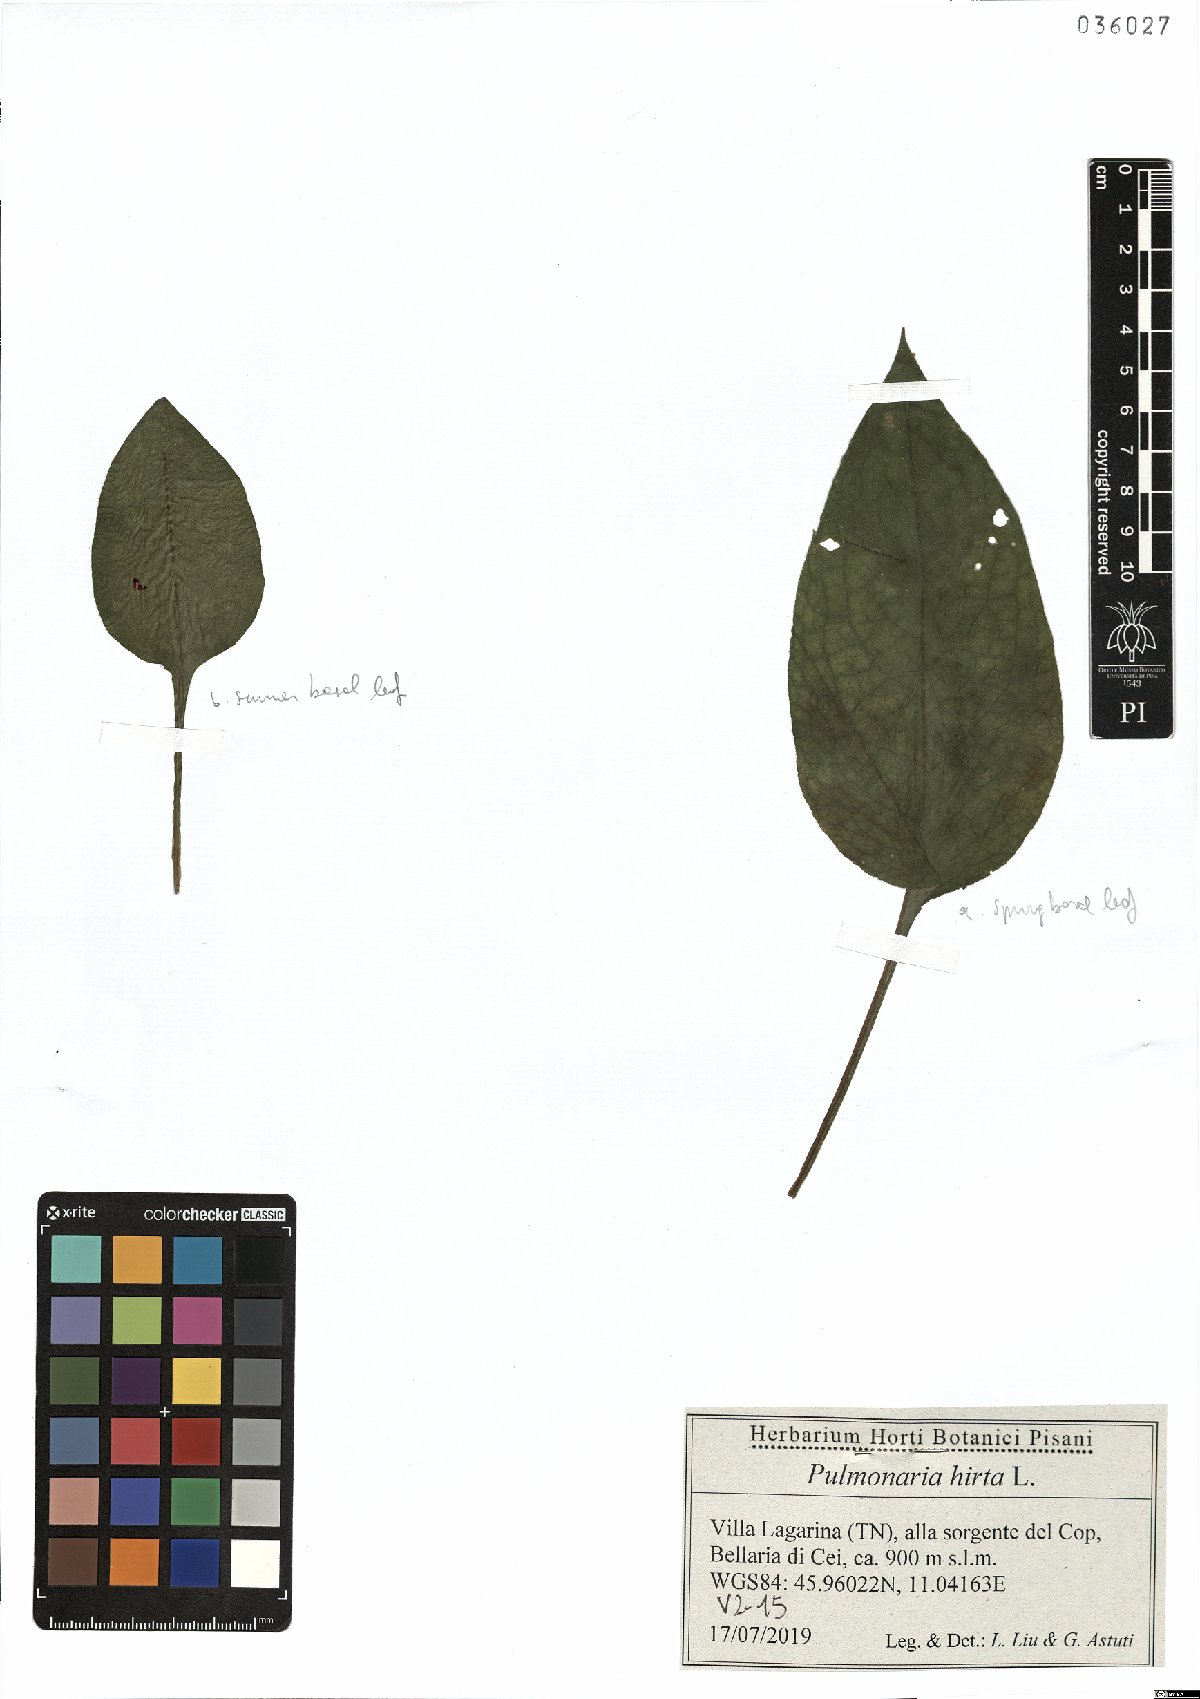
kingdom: Plantae
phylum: Tracheophyta
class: Magnoliopsida
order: Boraginales
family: Boraginaceae
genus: Pulmonaria
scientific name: Pulmonaria hirta
